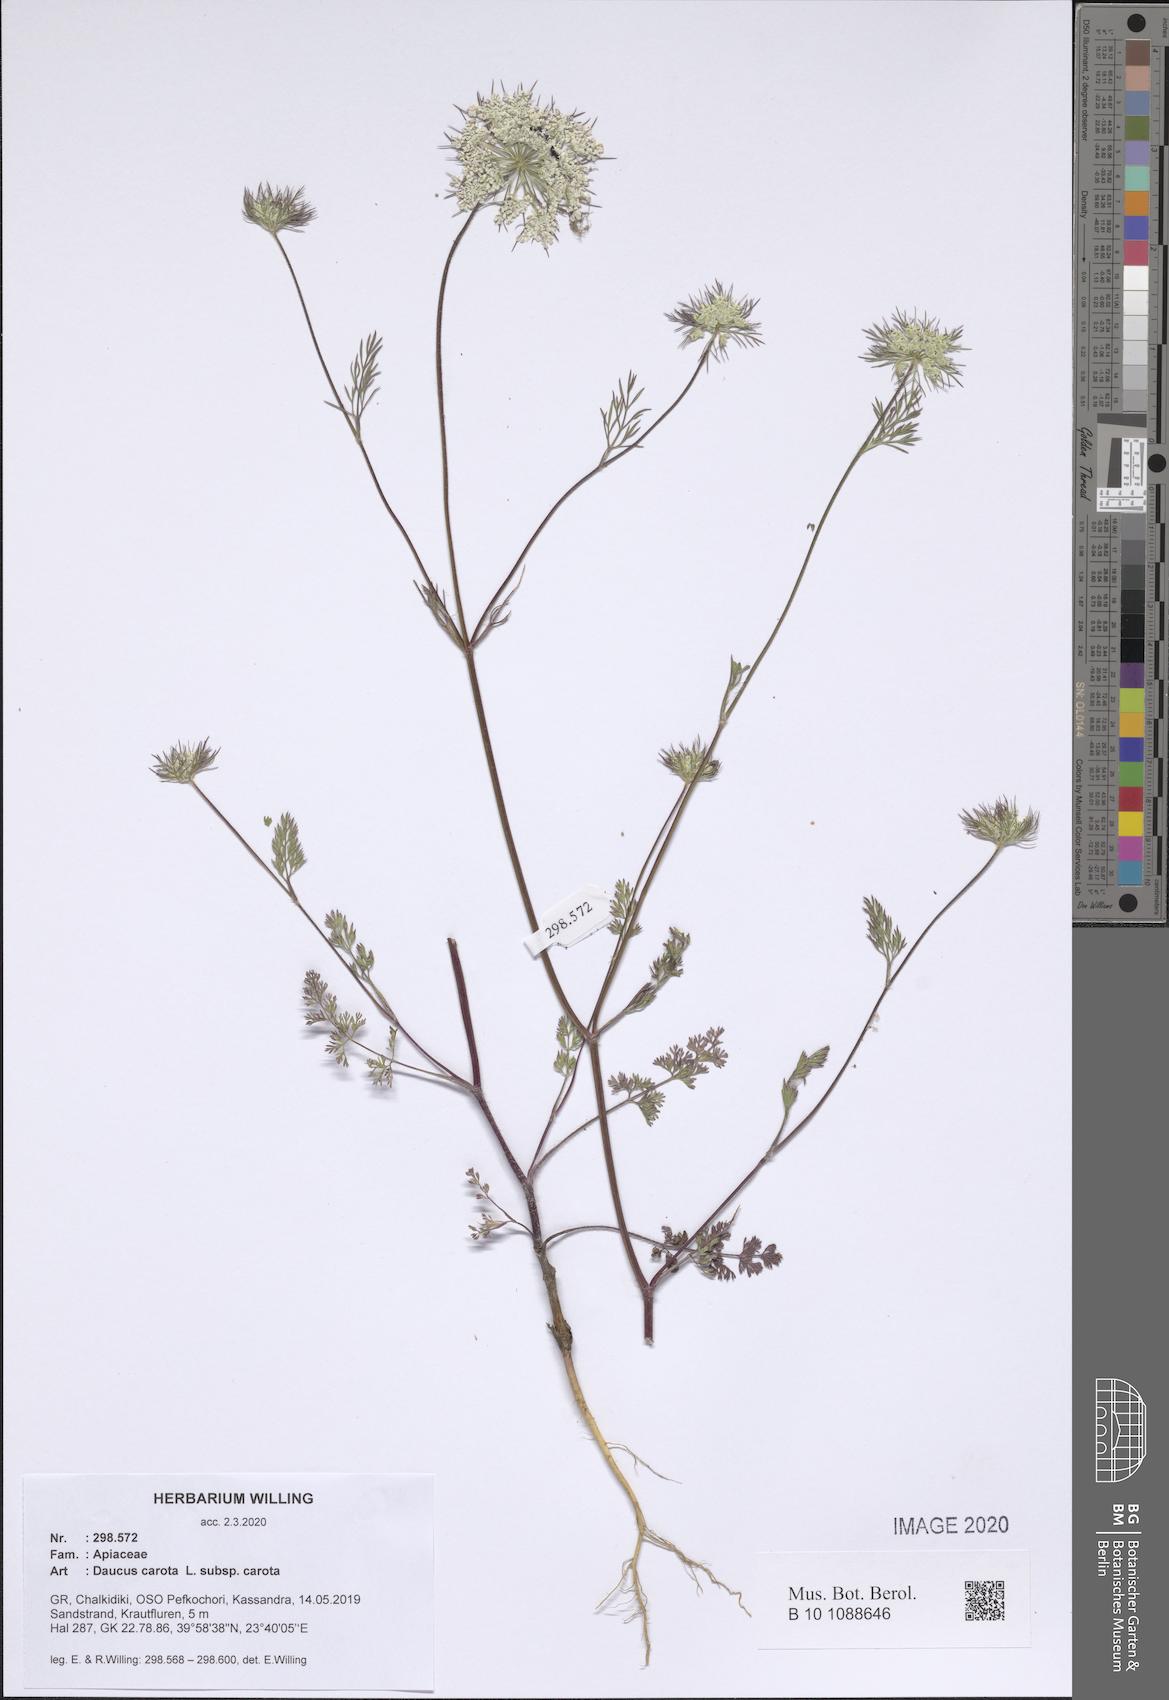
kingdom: Plantae
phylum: Tracheophyta
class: Magnoliopsida
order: Apiales
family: Apiaceae
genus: Daucus
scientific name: Daucus carota
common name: Wild carrot
